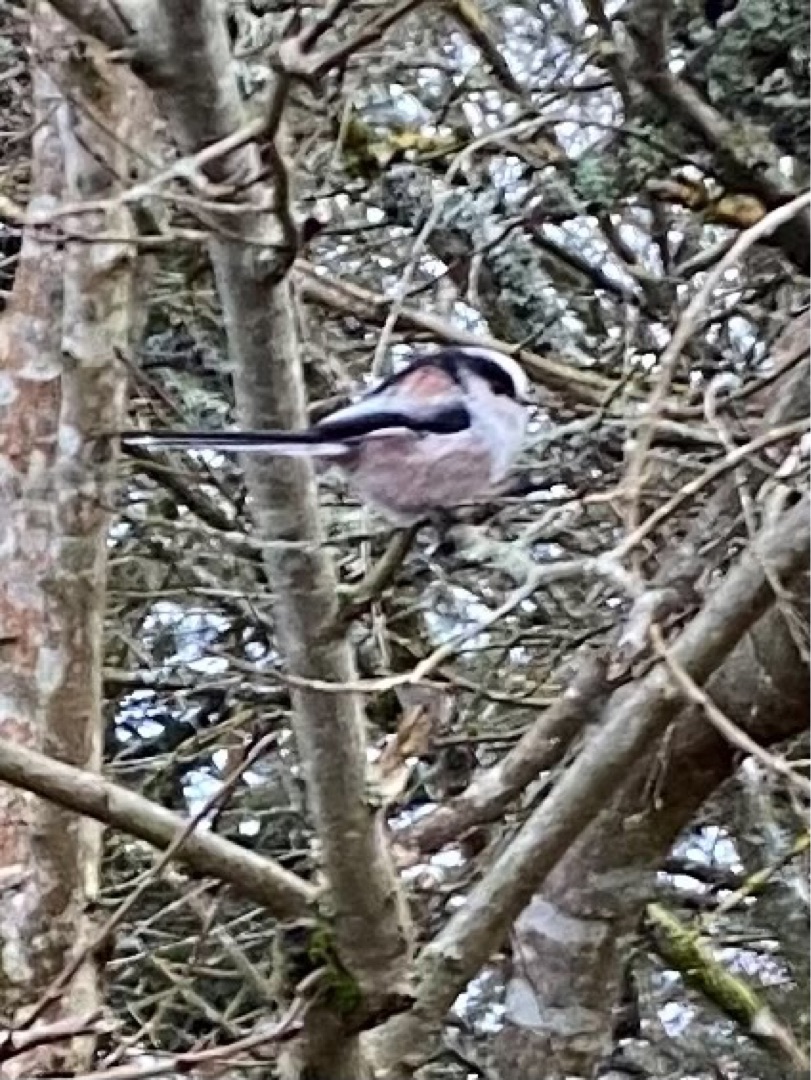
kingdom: Animalia
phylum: Chordata
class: Aves
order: Passeriformes
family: Aegithalidae
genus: Aegithalos
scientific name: Aegithalos caudatus
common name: Halemejse
